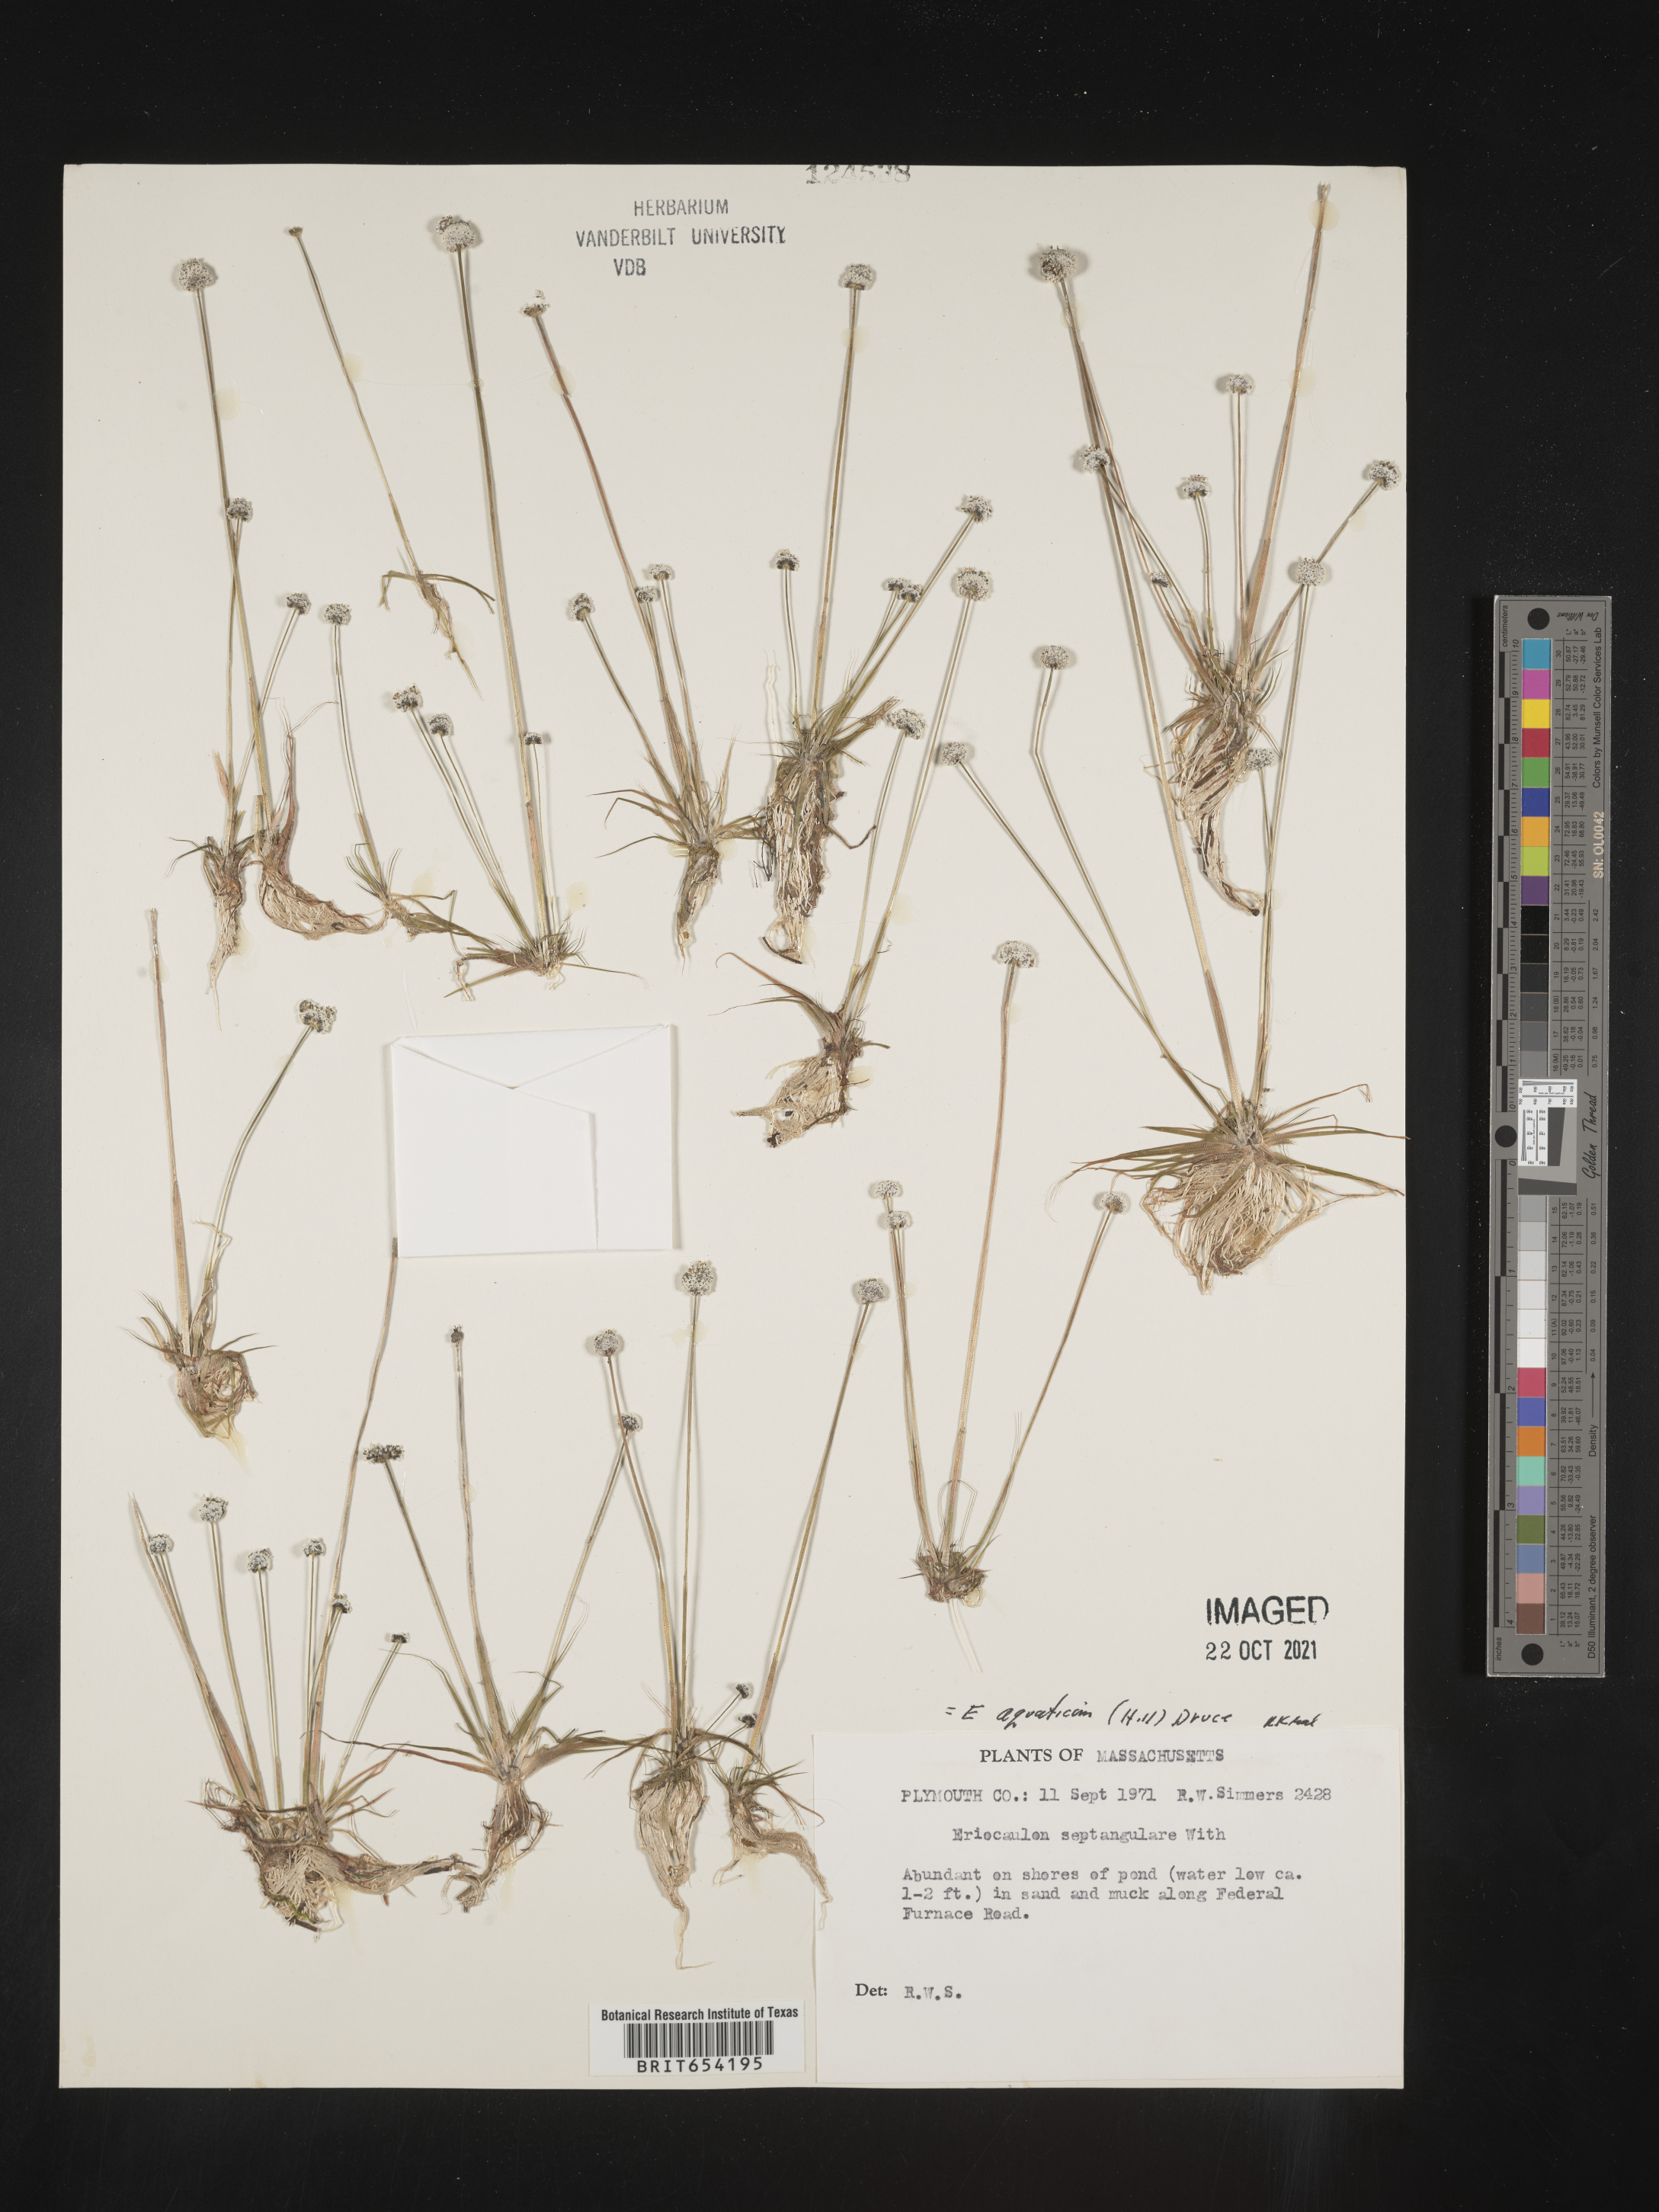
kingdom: Plantae
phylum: Tracheophyta
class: Liliopsida
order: Poales
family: Eriocaulaceae
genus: Eriocaulon
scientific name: Eriocaulon aquaticum
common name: Pipewort
